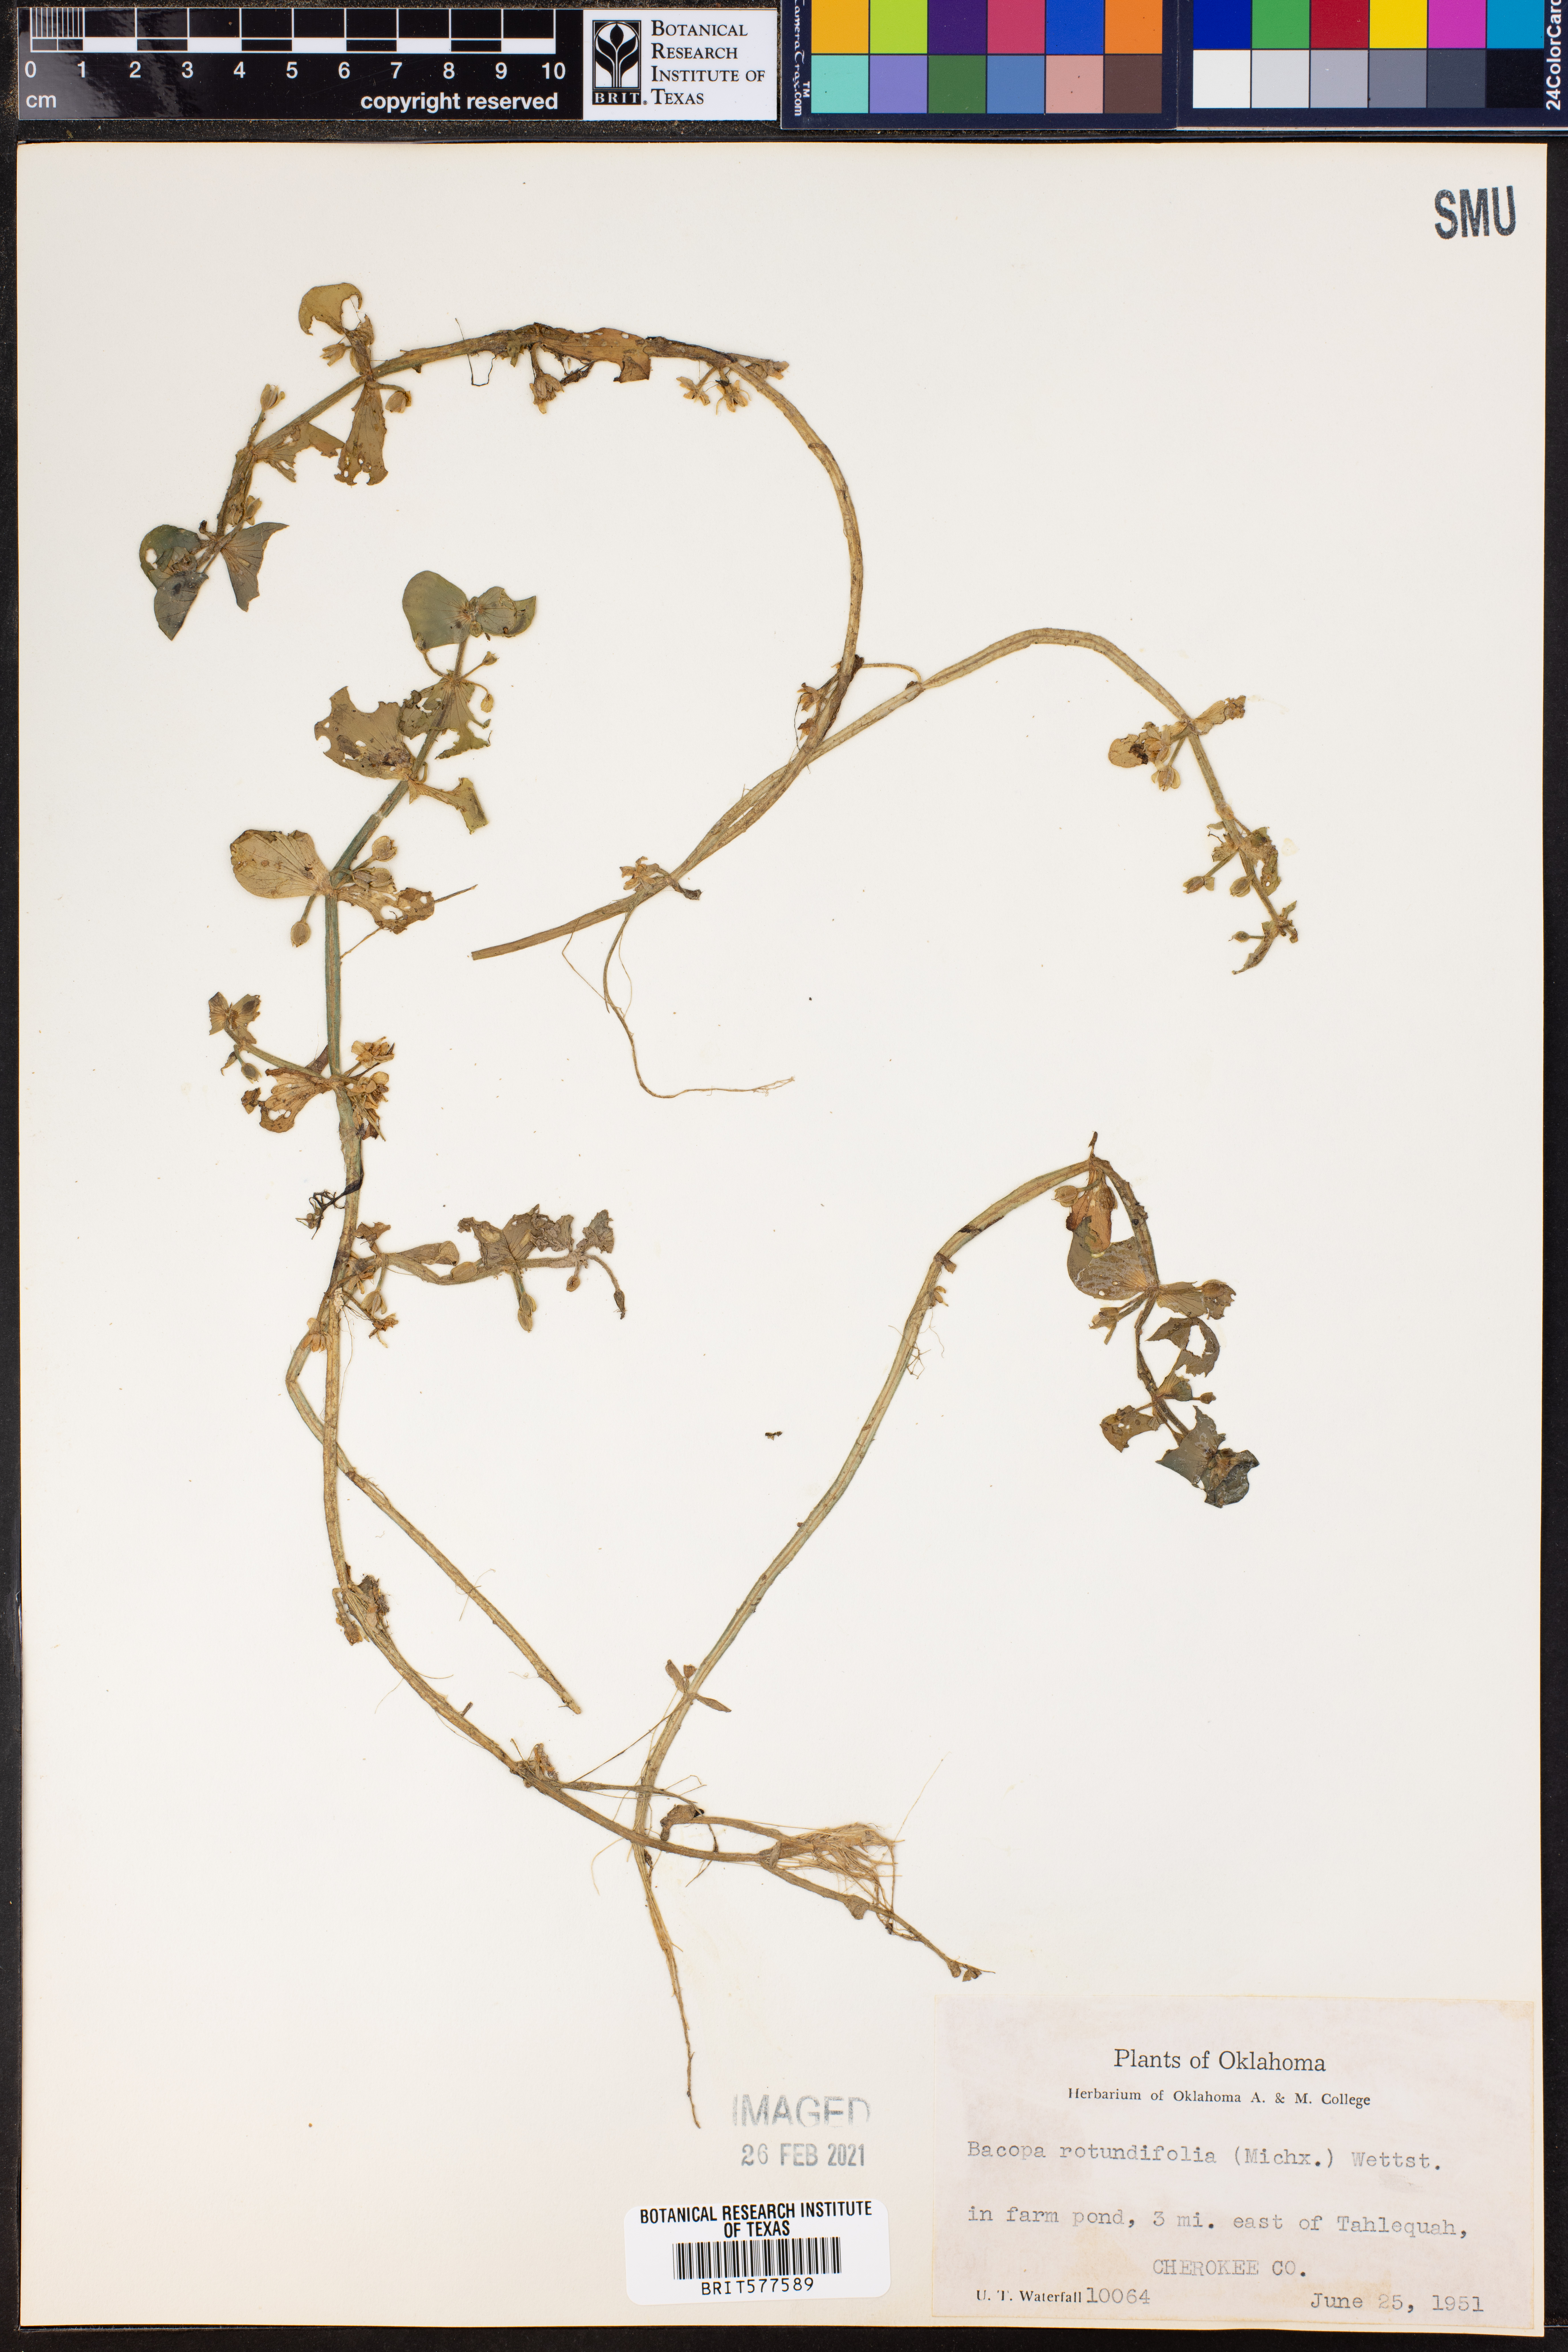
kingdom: Plantae
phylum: Tracheophyta
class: Magnoliopsida
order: Lamiales
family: Plantaginaceae
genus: Bacopa
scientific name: Bacopa rotundifolia
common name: Disc water hyssop
